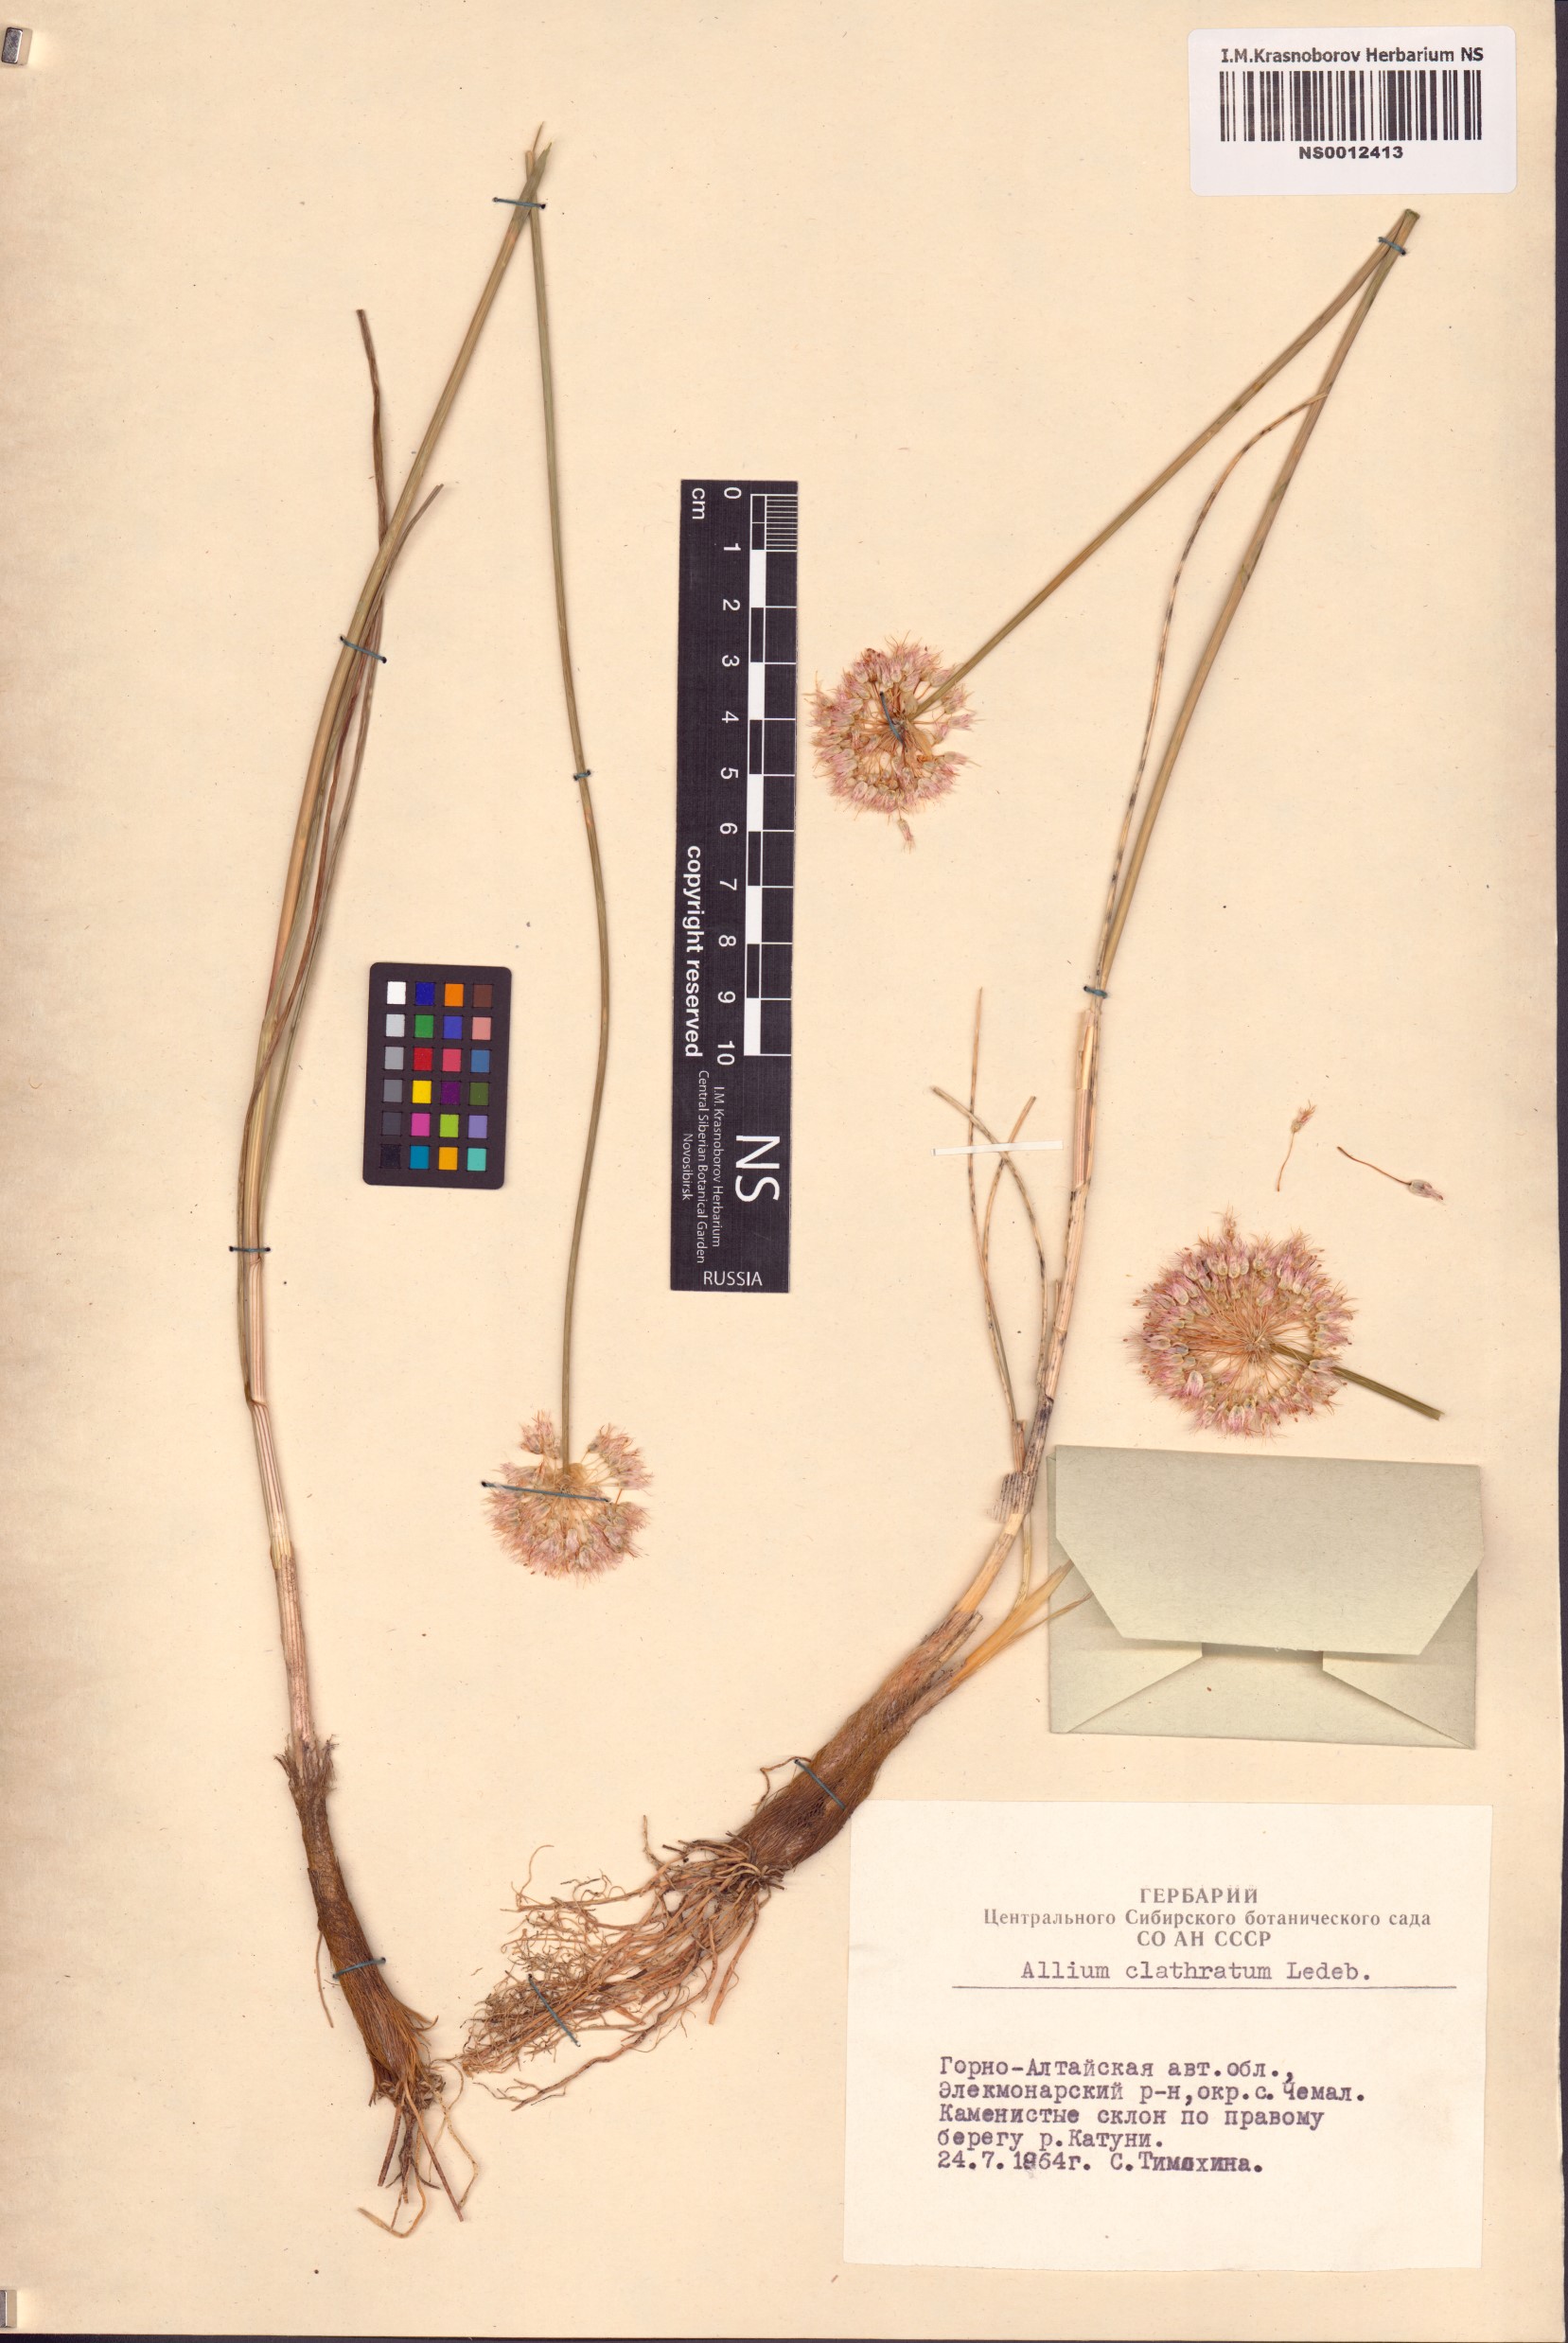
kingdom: Plantae
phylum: Tracheophyta
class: Liliopsida
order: Asparagales
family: Amaryllidaceae
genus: Allium
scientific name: Allium clathratum
